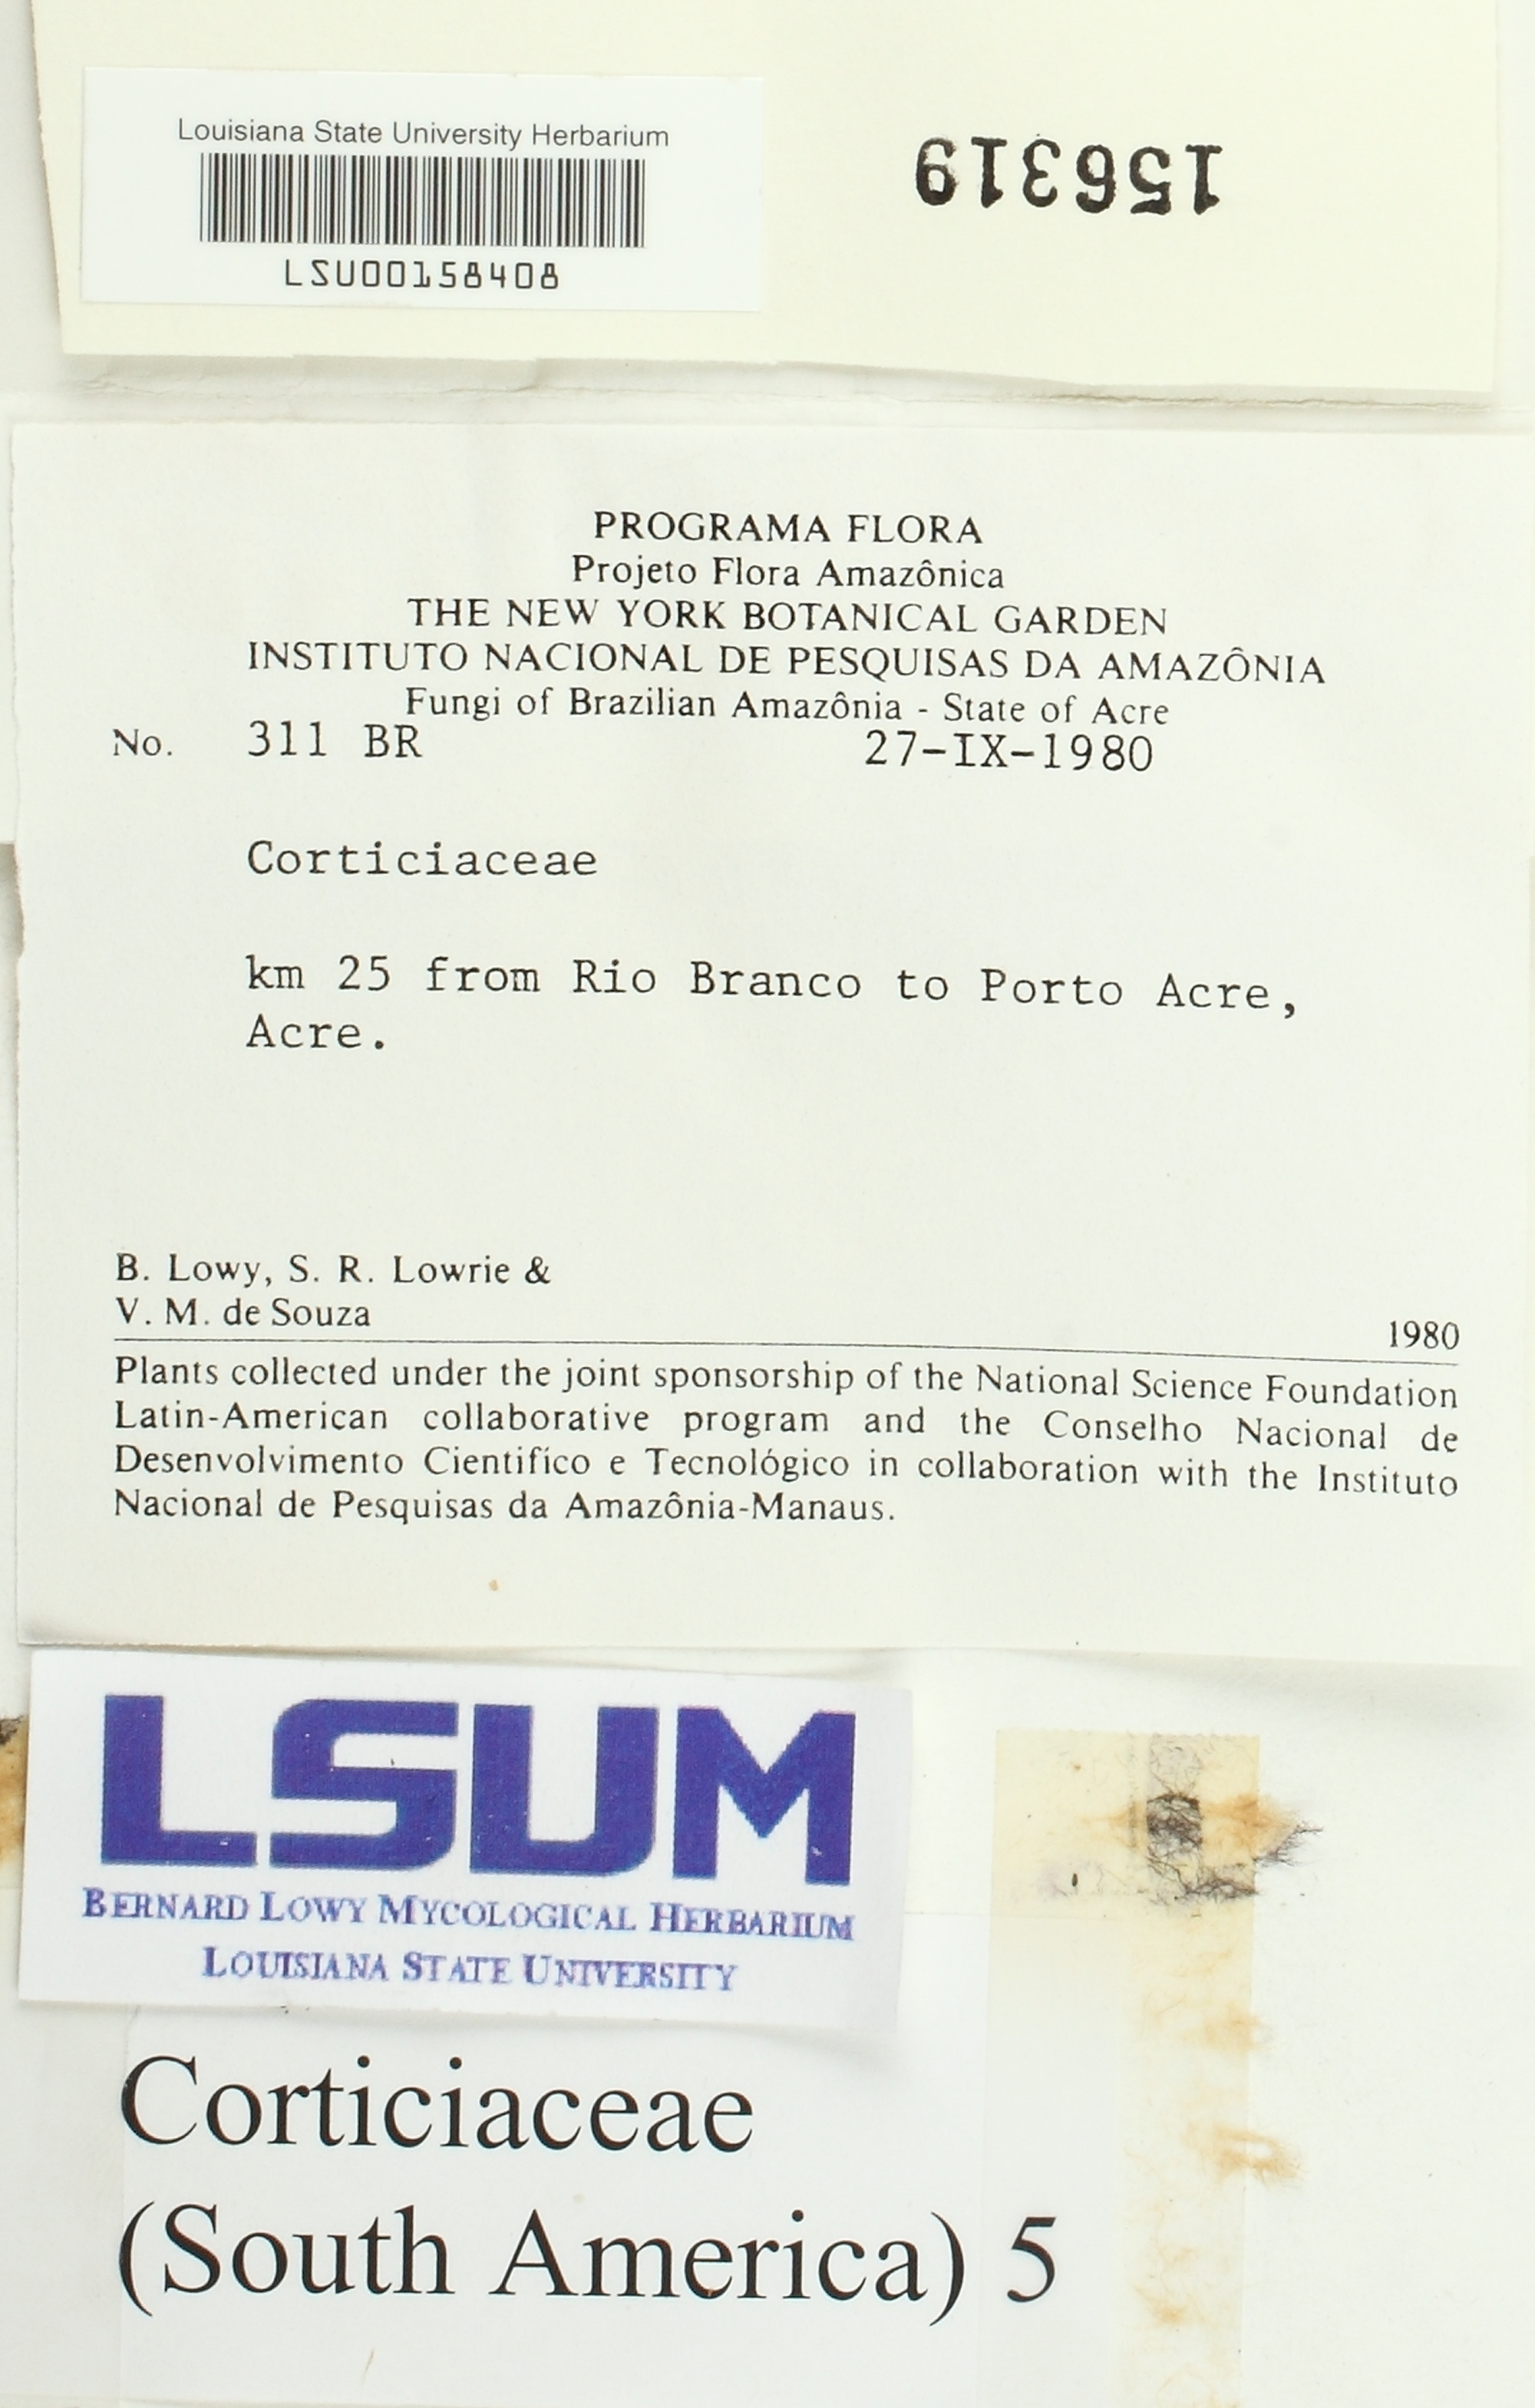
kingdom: Fungi
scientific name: Fungi
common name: Fungi
